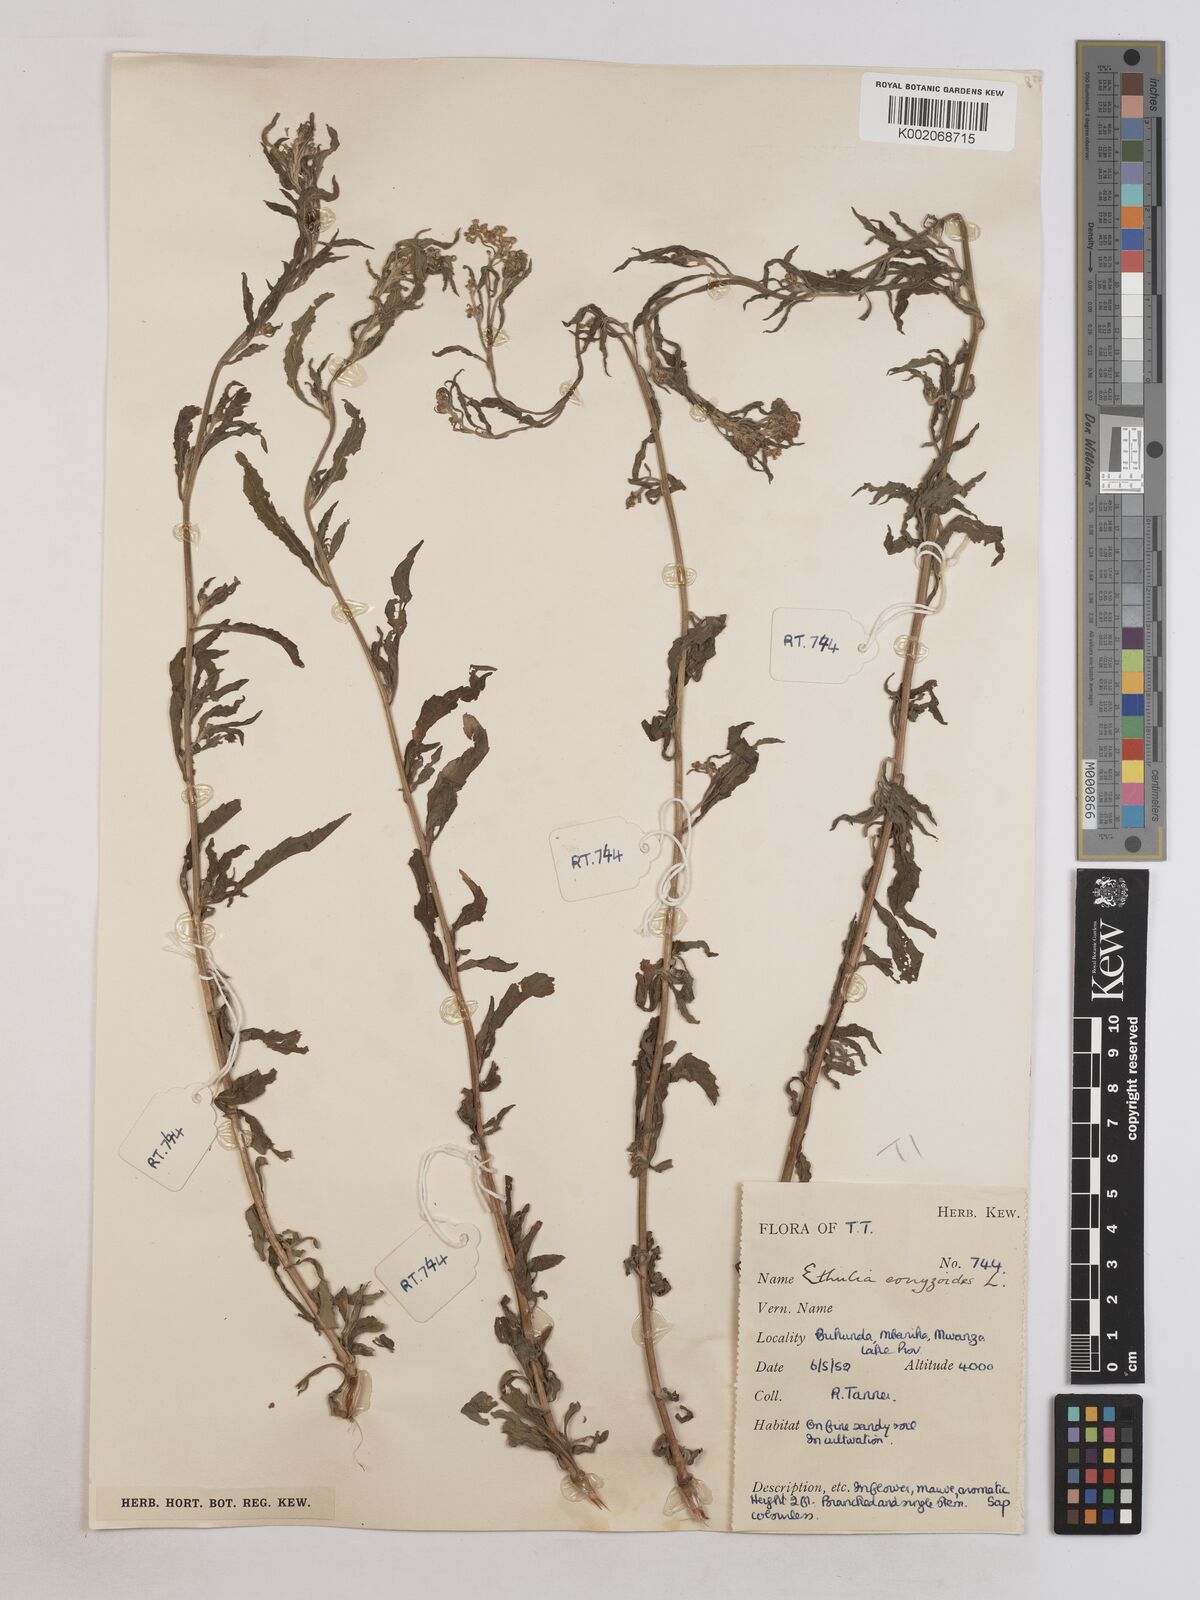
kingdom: Plantae
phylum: Tracheophyta
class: Magnoliopsida
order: Asterales
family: Asteraceae
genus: Ethulia
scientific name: Ethulia
